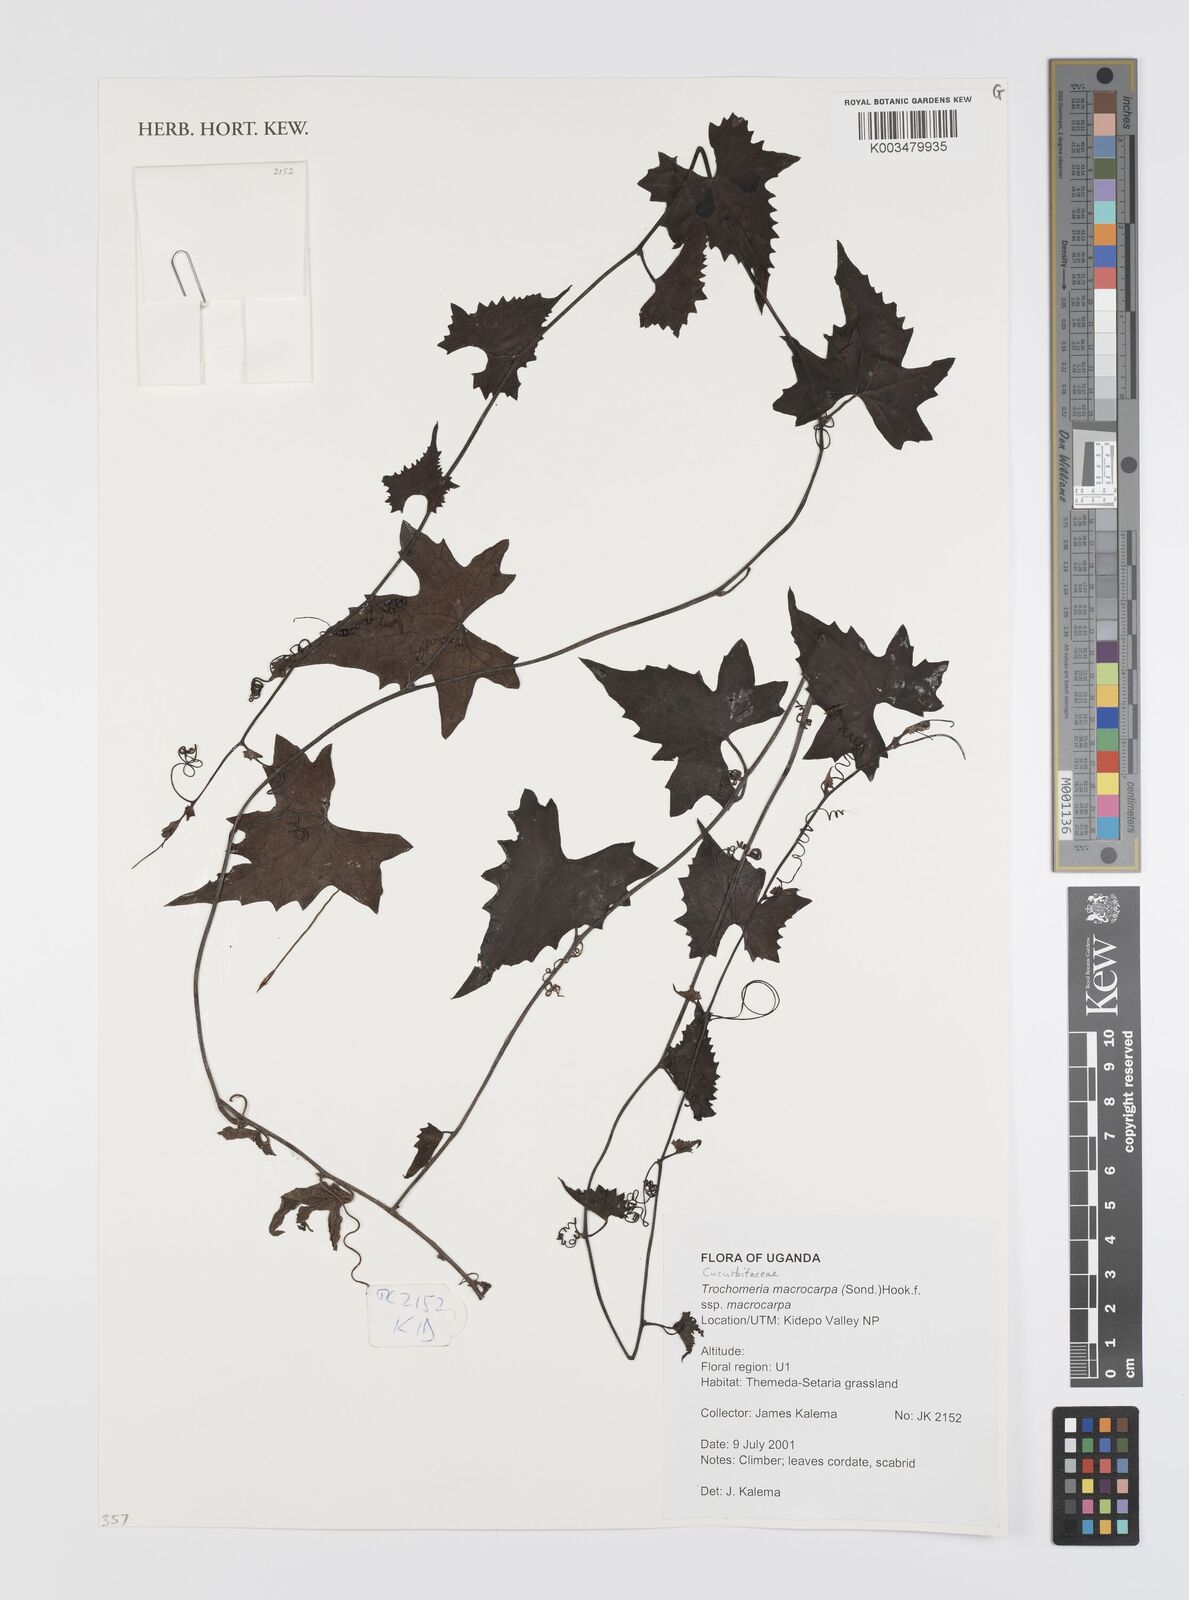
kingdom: Plantae
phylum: Tracheophyta
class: Magnoliopsida
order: Cucurbitales
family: Cucurbitaceae
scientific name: Cucurbitaceae
